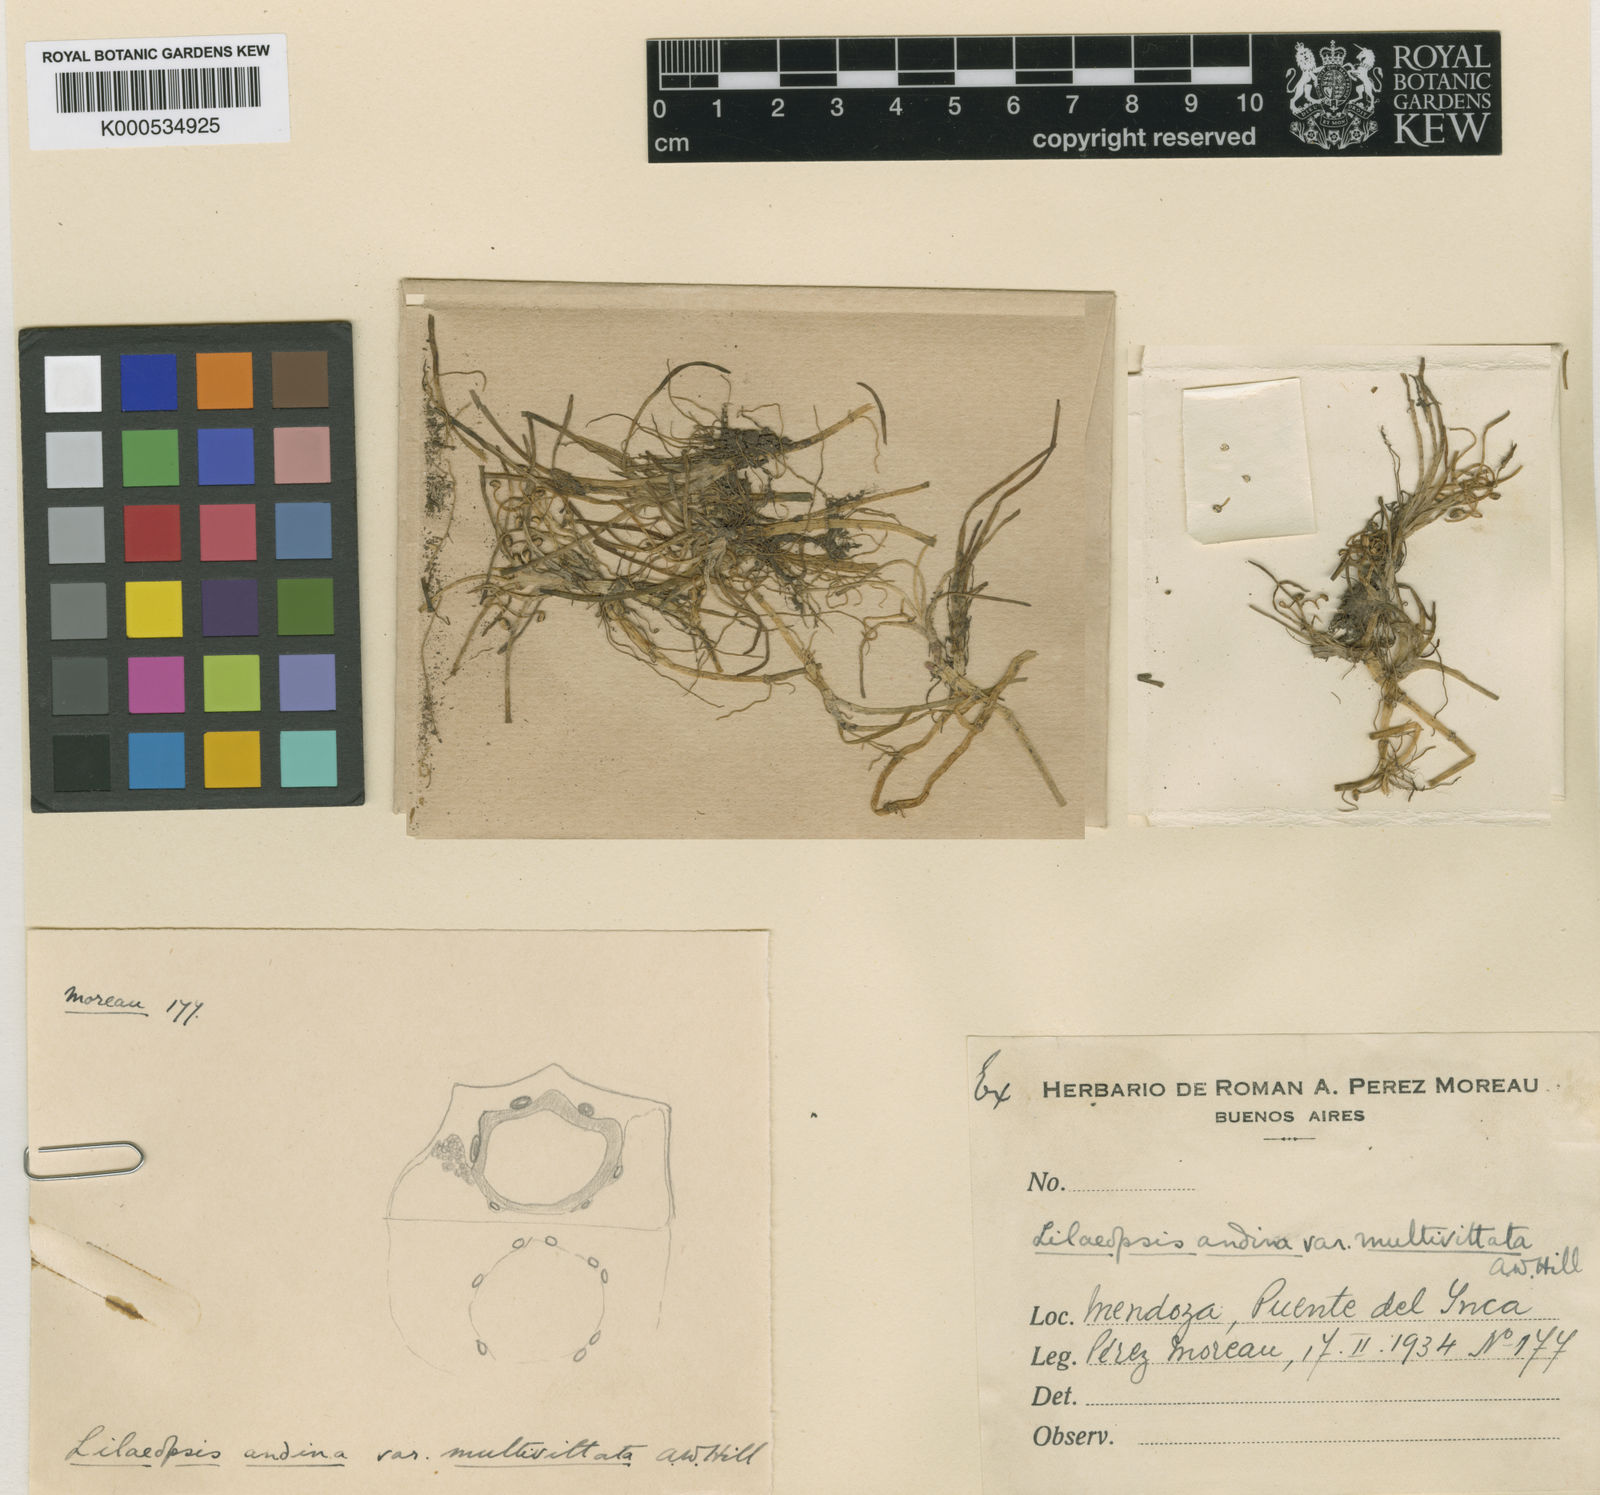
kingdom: Plantae
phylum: Tracheophyta
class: Magnoliopsida
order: Apiales
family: Apiaceae
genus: Lilaeopsis
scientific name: Lilaeopsis macloviana
